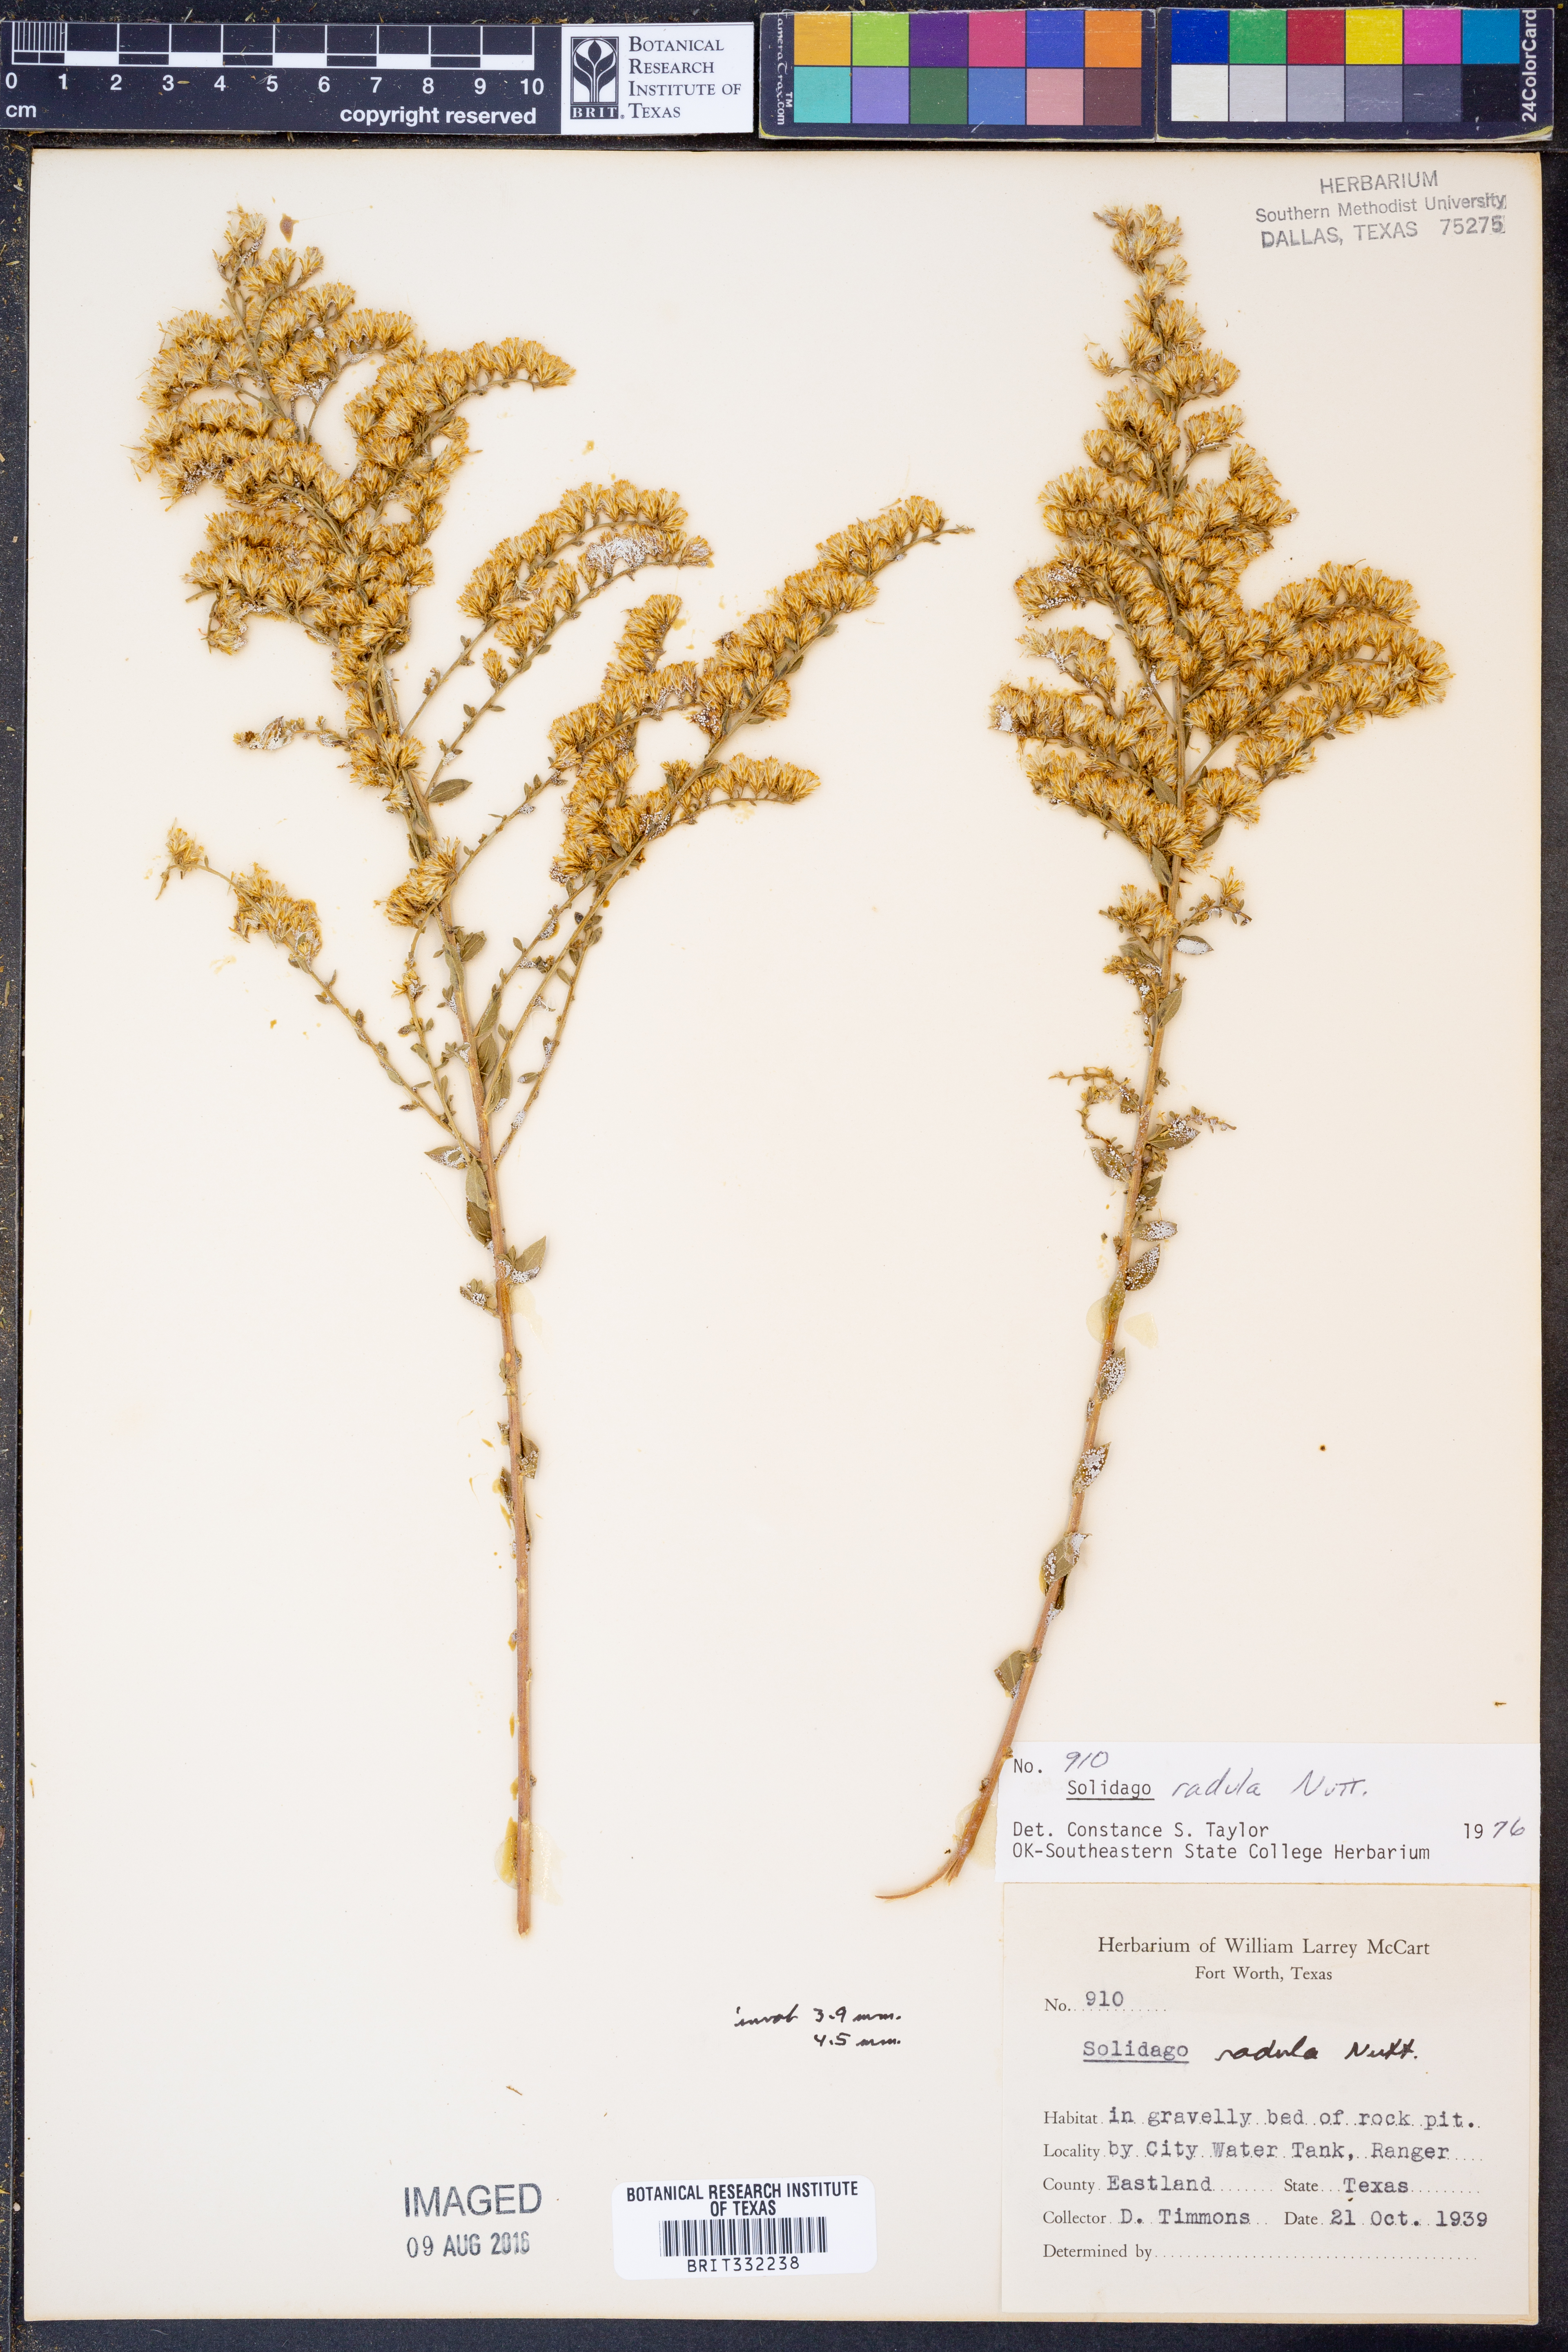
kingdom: Plantae
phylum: Tracheophyta
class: Magnoliopsida
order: Asterales
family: Asteraceae
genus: Solidago
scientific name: Solidago radula
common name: Western rough goldenrod
